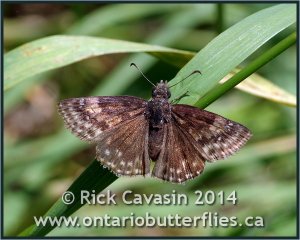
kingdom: Animalia
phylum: Arthropoda
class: Insecta
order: Lepidoptera
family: Hesperiidae
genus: Gesta
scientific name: Gesta
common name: Wild Indigo Duskywing
